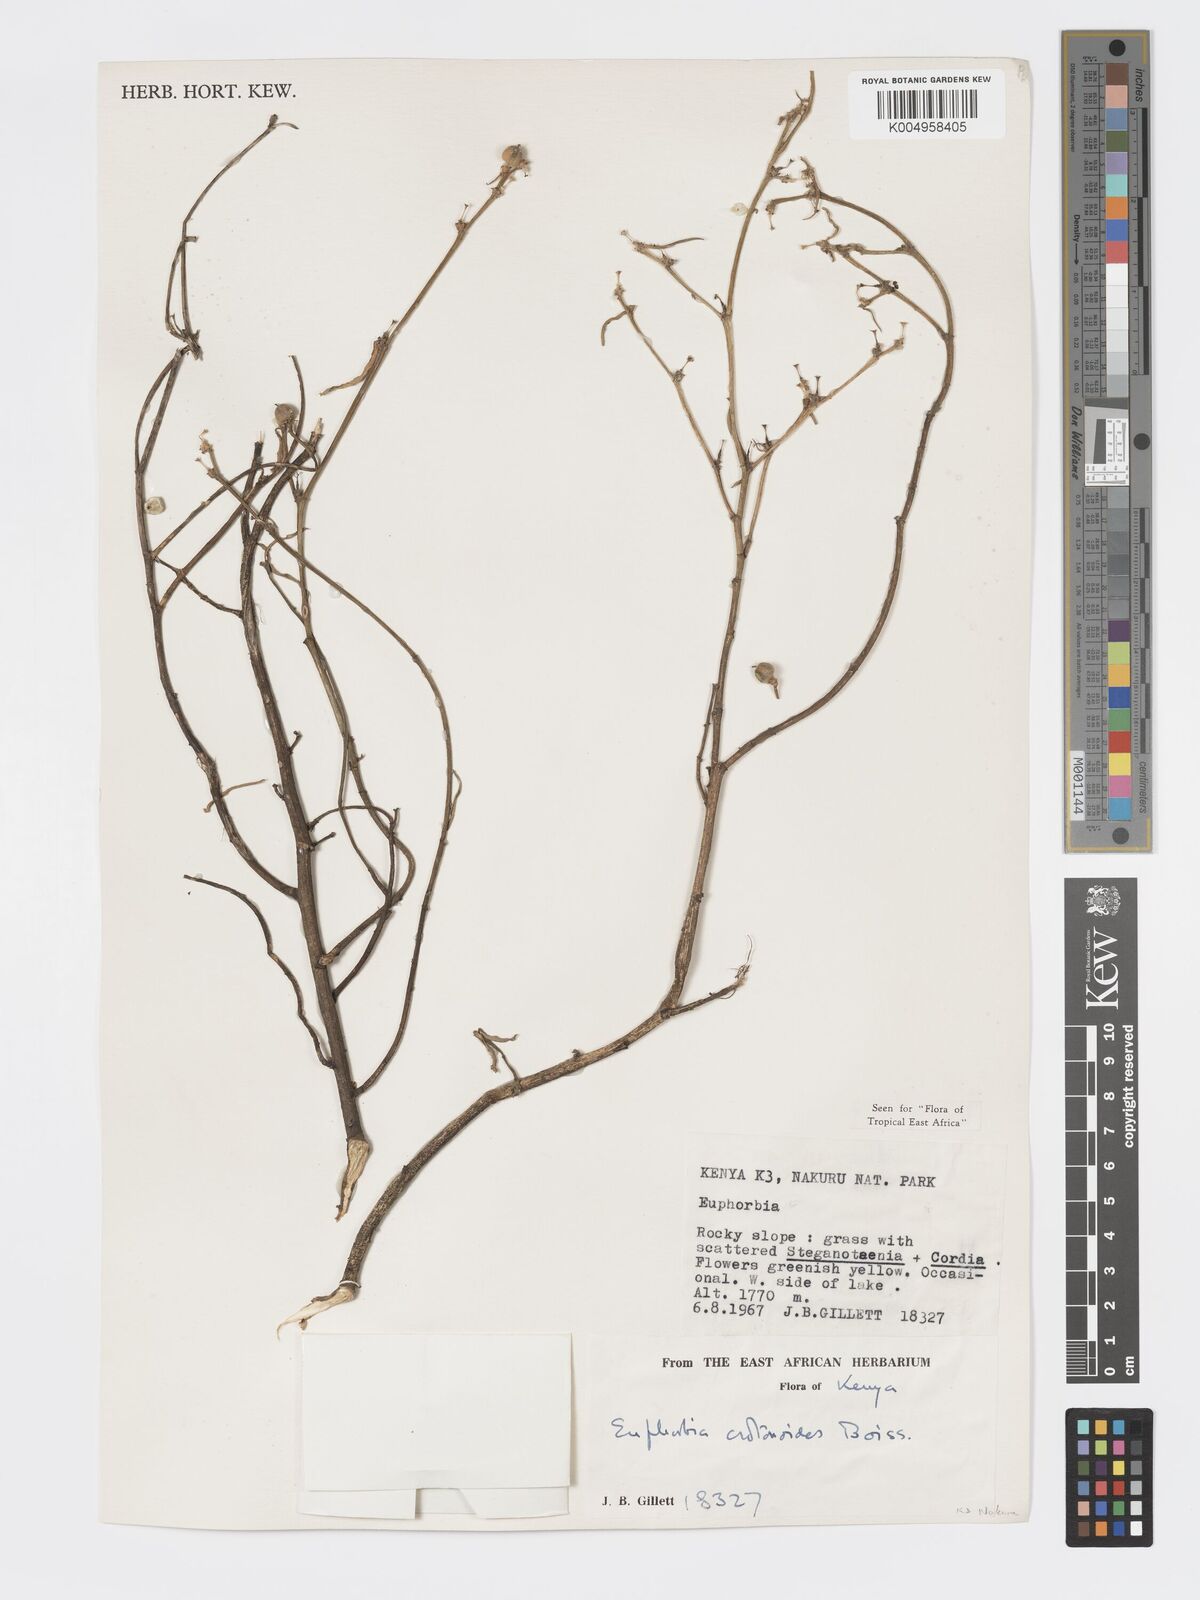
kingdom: Plantae
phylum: Tracheophyta
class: Magnoliopsida
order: Malpighiales
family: Euphorbiaceae
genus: Euphorbia
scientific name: Euphorbia crotonoides
